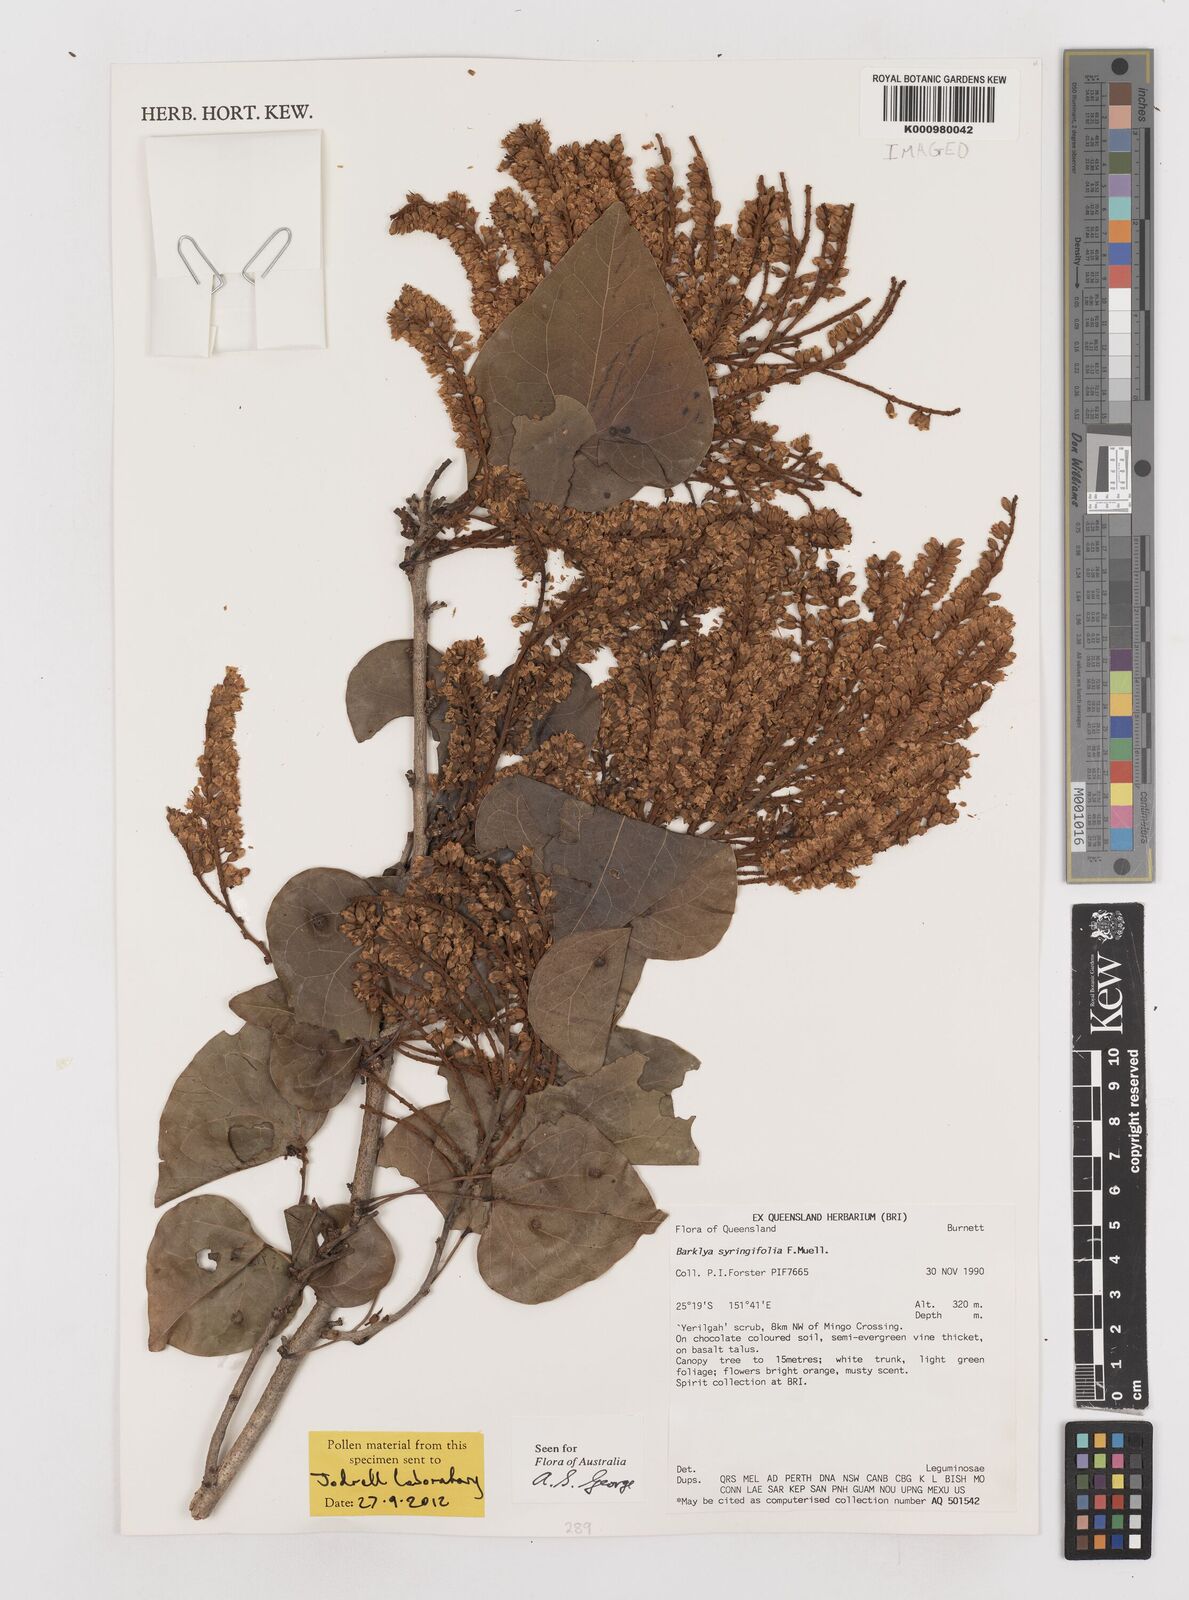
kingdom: Plantae
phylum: Tracheophyta
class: Magnoliopsida
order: Fabales
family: Fabaceae
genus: Barklya
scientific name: Barklya syringifolia
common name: Crown-of-gold-tree
